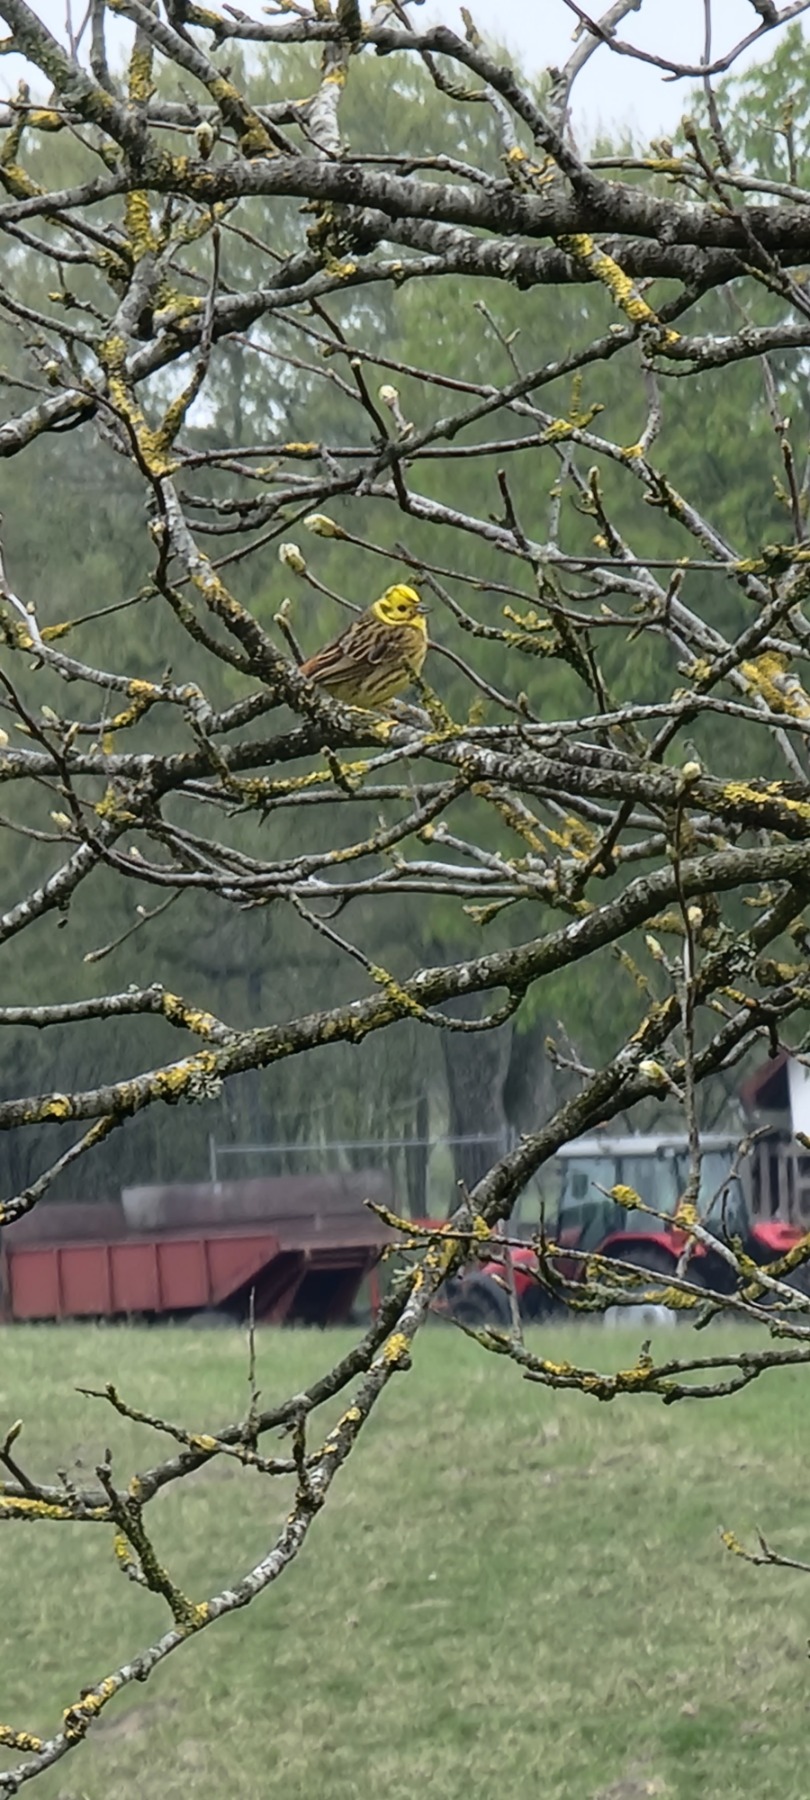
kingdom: Animalia
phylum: Chordata
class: Aves
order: Passeriformes
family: Emberizidae
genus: Emberiza
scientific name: Emberiza citrinella
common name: Gulspurv
